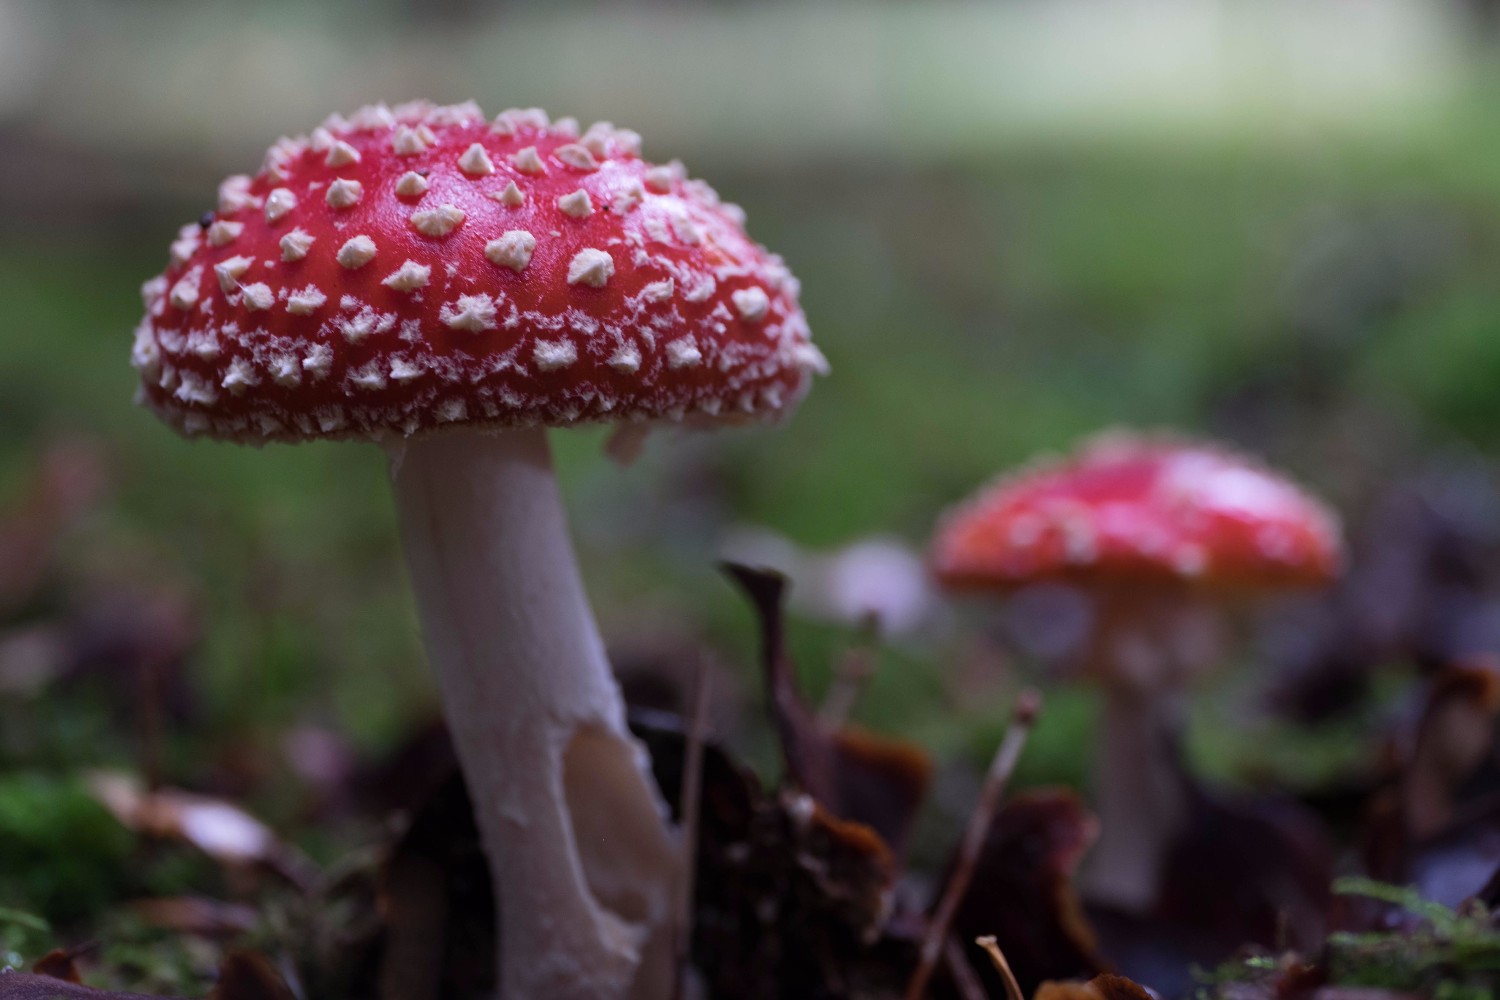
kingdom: Fungi
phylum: Basidiomycota
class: Agaricomycetes
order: Agaricales
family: Amanitaceae
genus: Amanita
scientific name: Amanita muscaria
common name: rød fluesvamp
